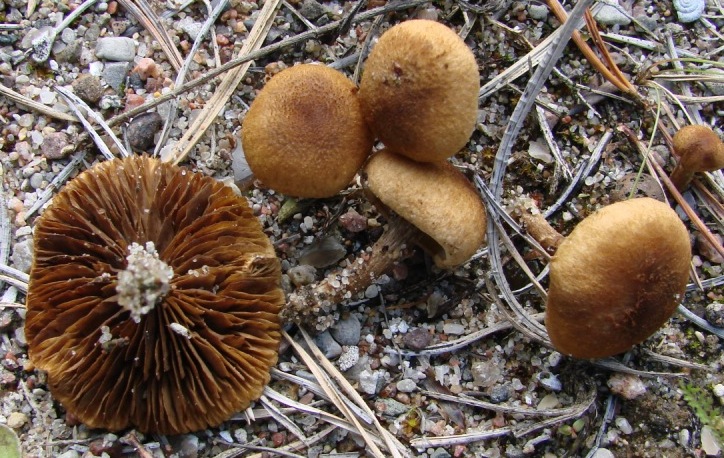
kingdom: Fungi
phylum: Basidiomycota
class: Agaricomycetes
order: Agaricales
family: Inocybaceae
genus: Inocybe
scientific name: Inocybe dulcamara
